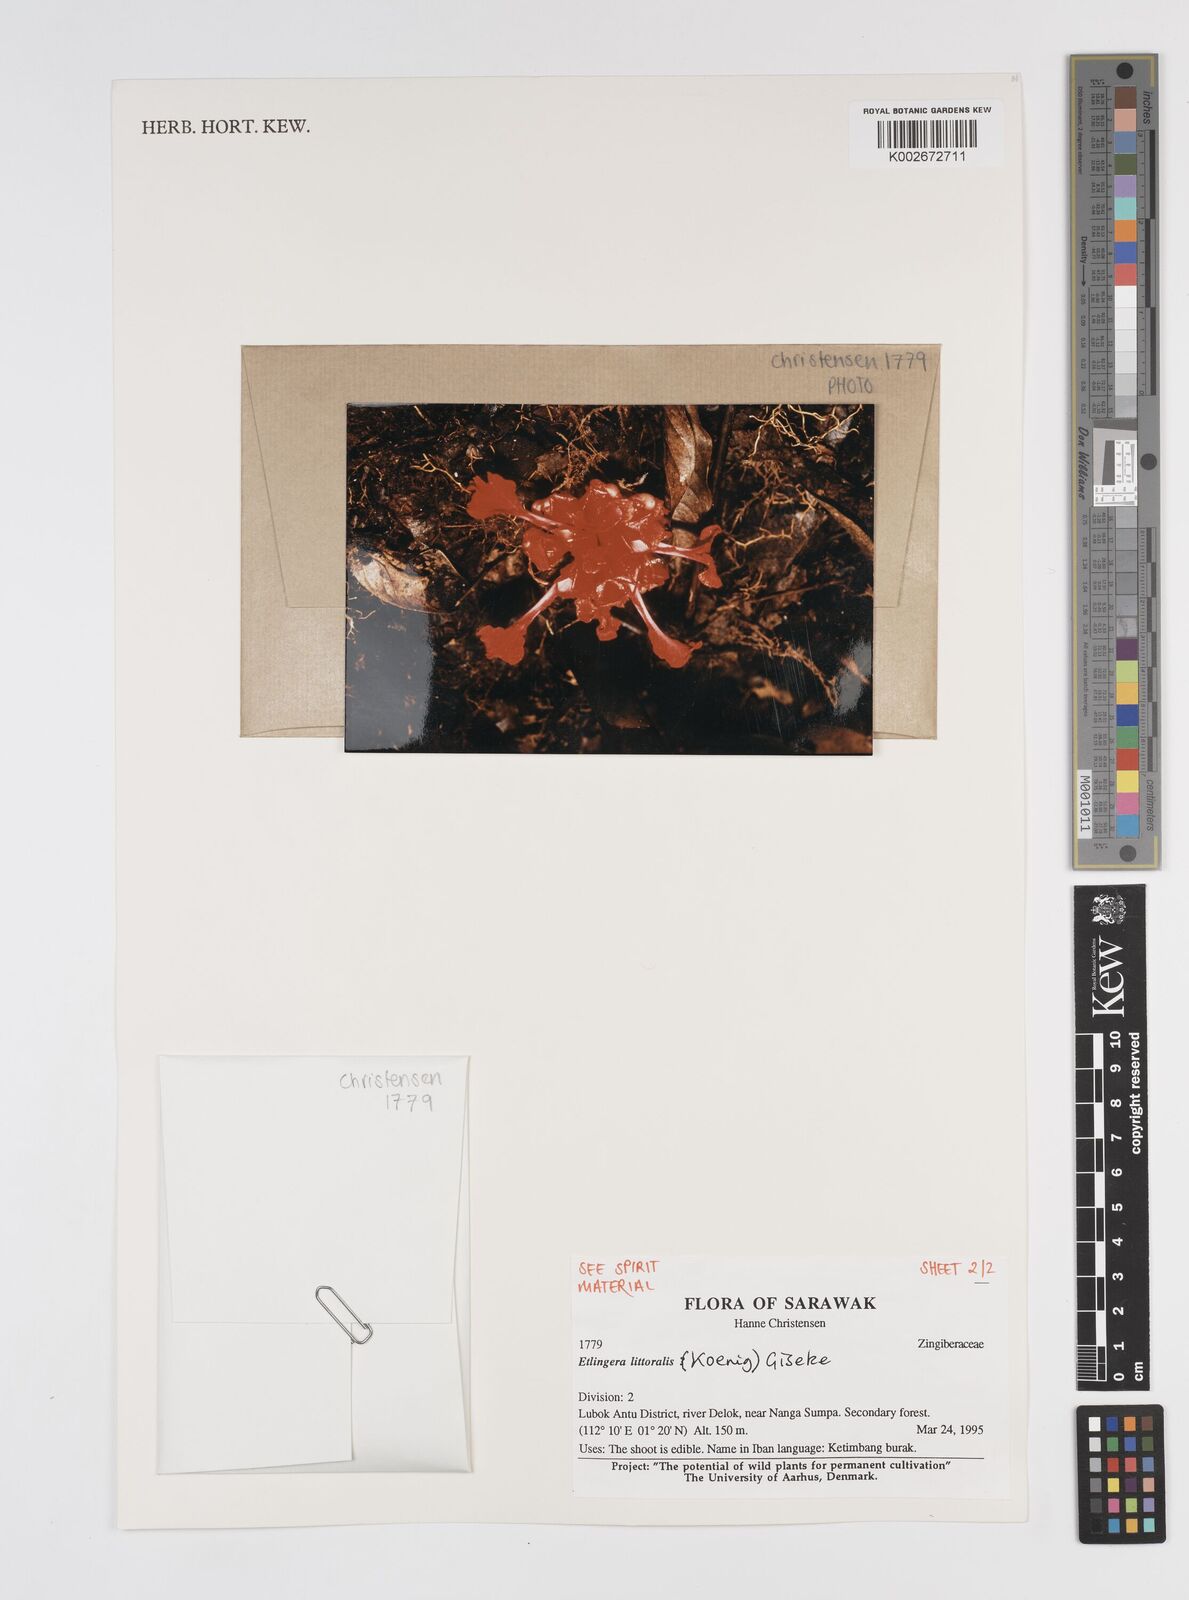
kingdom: Plantae
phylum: Tracheophyta
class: Liliopsida
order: Zingiberales
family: Zingiberaceae
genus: Etlingera
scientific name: Etlingera nasuta
